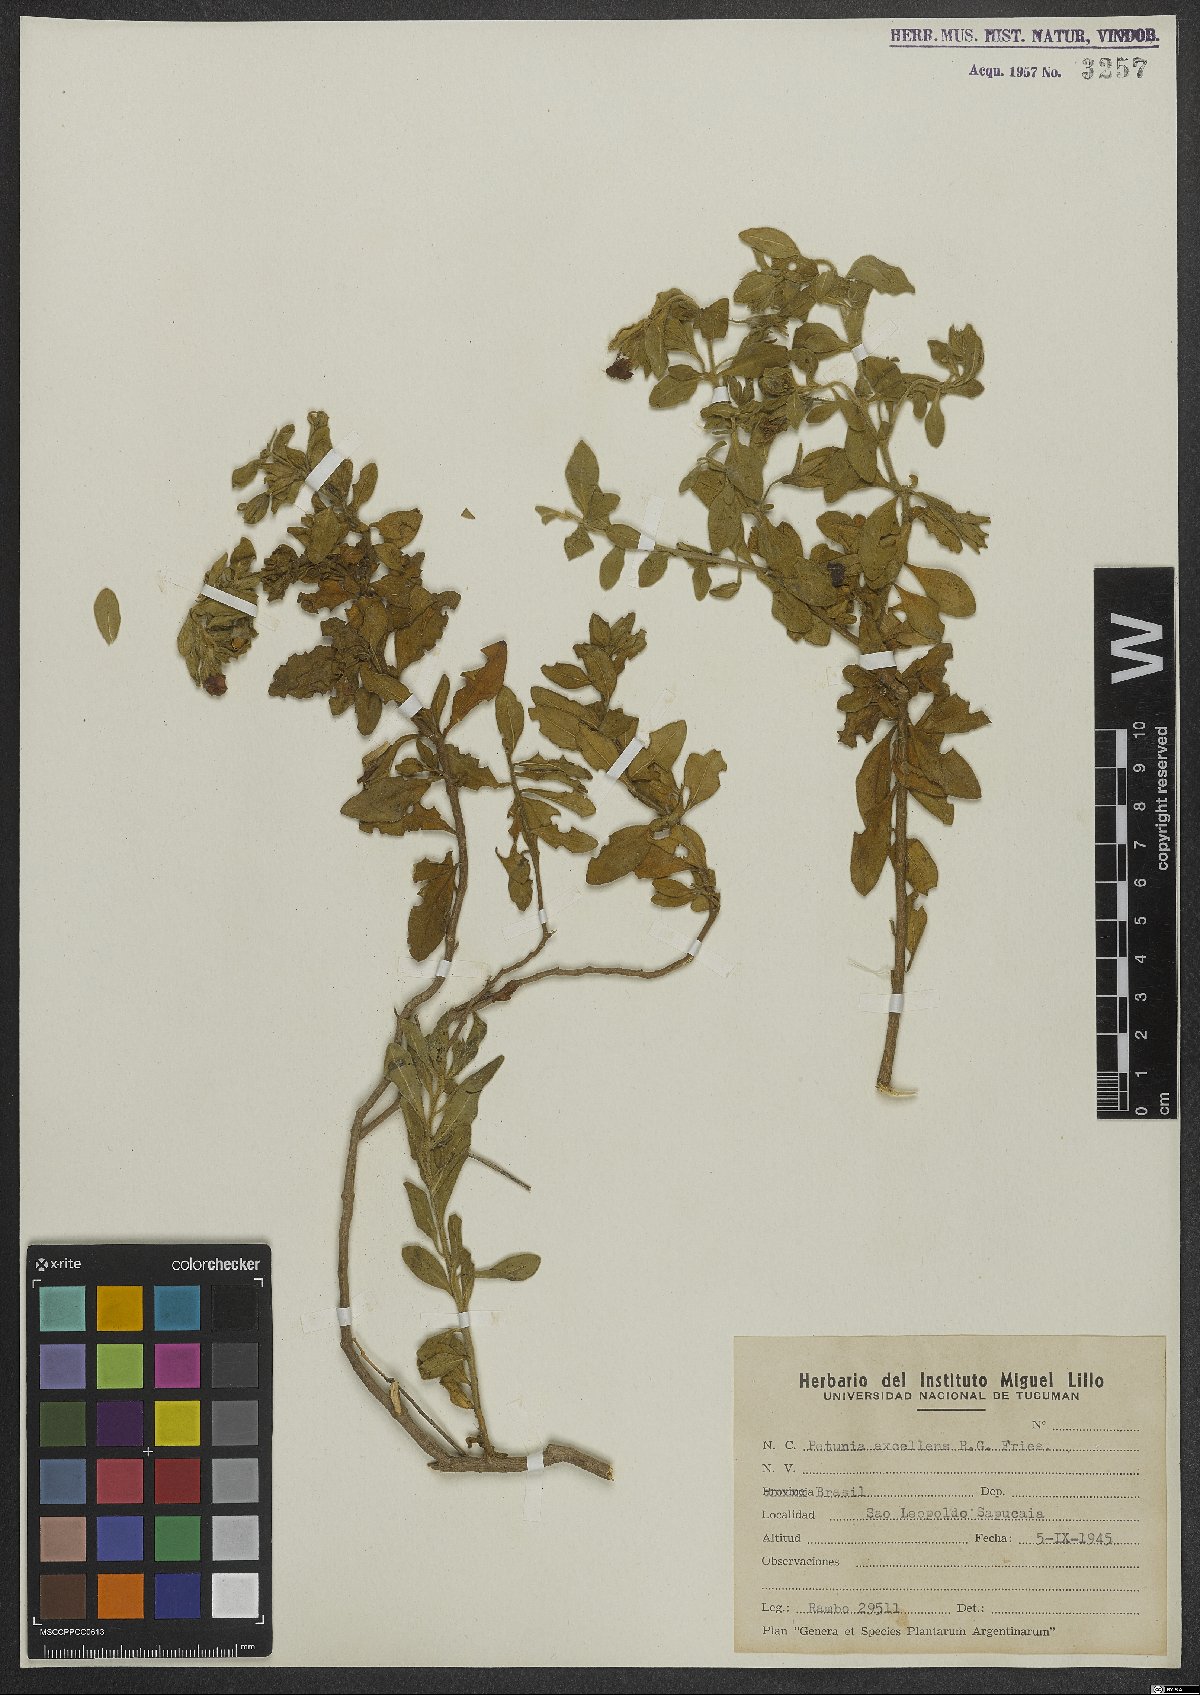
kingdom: Plantae
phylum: Tracheophyta
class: Magnoliopsida
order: Solanales
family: Solanaceae
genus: Calibrachoa
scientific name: Calibrachoa excellens
